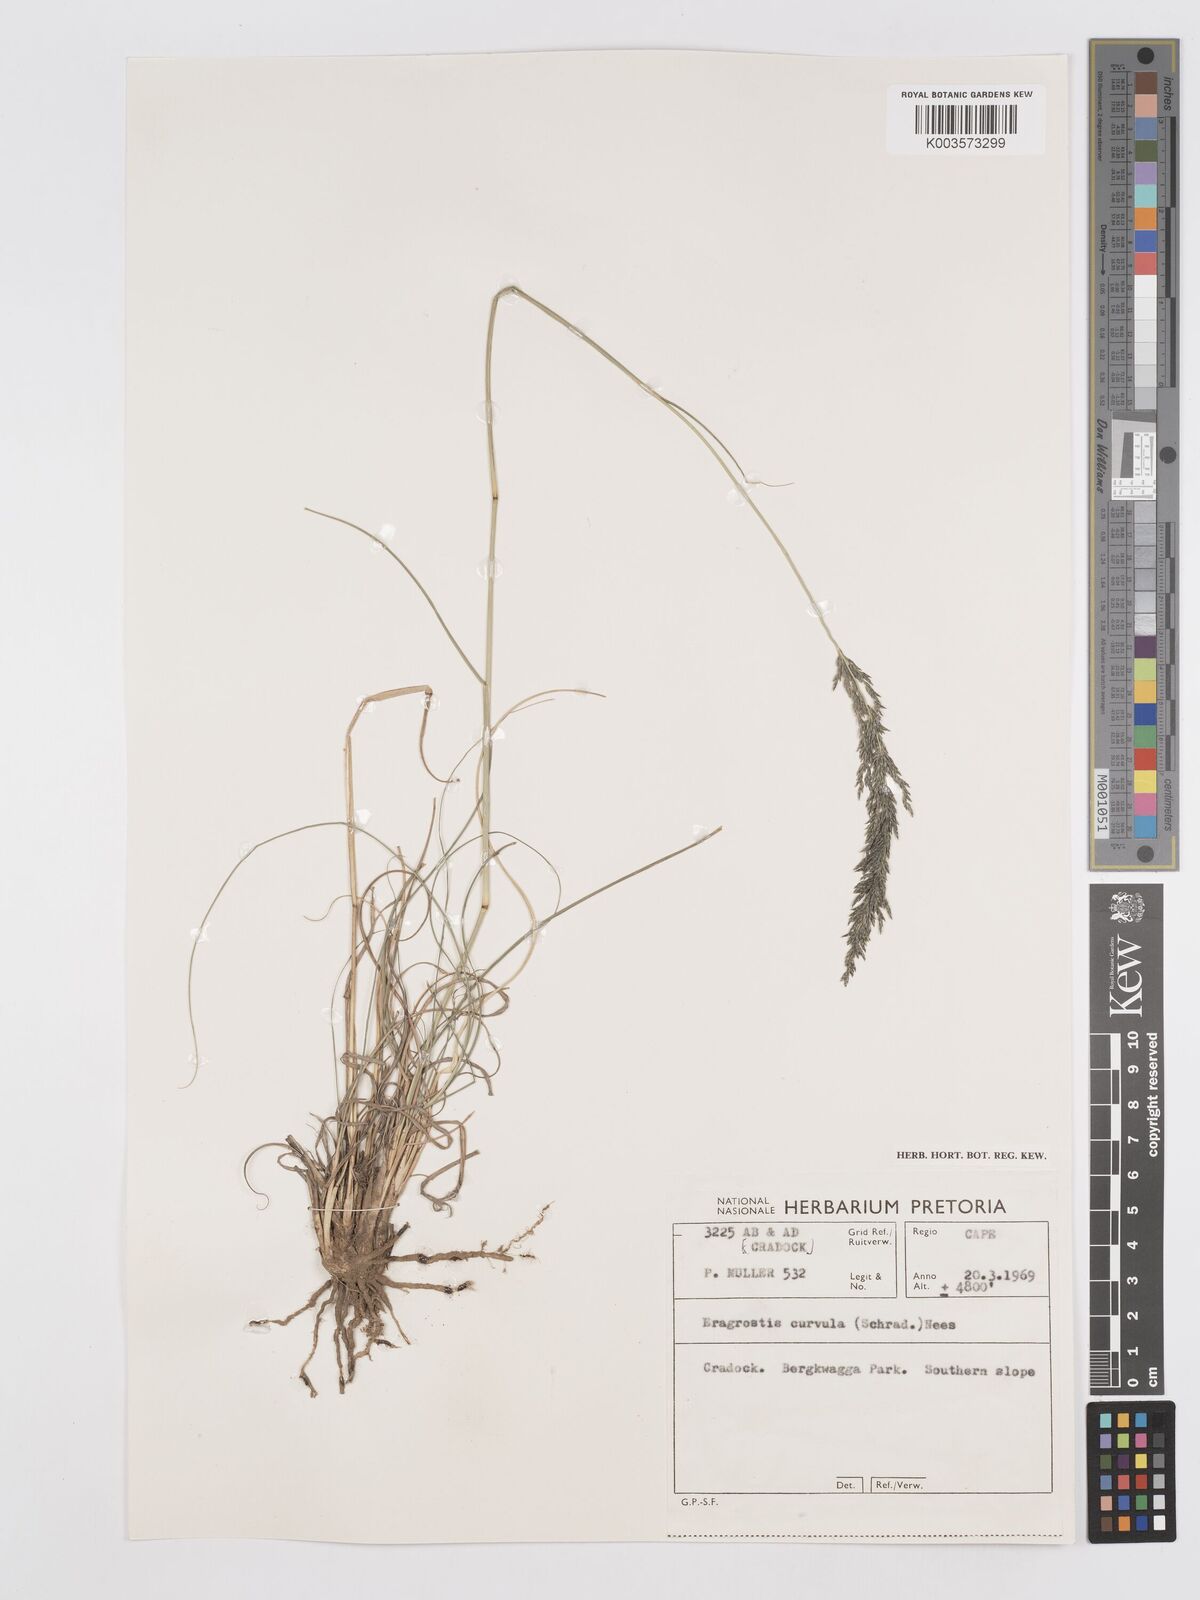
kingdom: Plantae
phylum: Tracheophyta
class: Liliopsida
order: Poales
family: Poaceae
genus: Eragrostis
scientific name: Eragrostis curvula
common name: African love-grass
